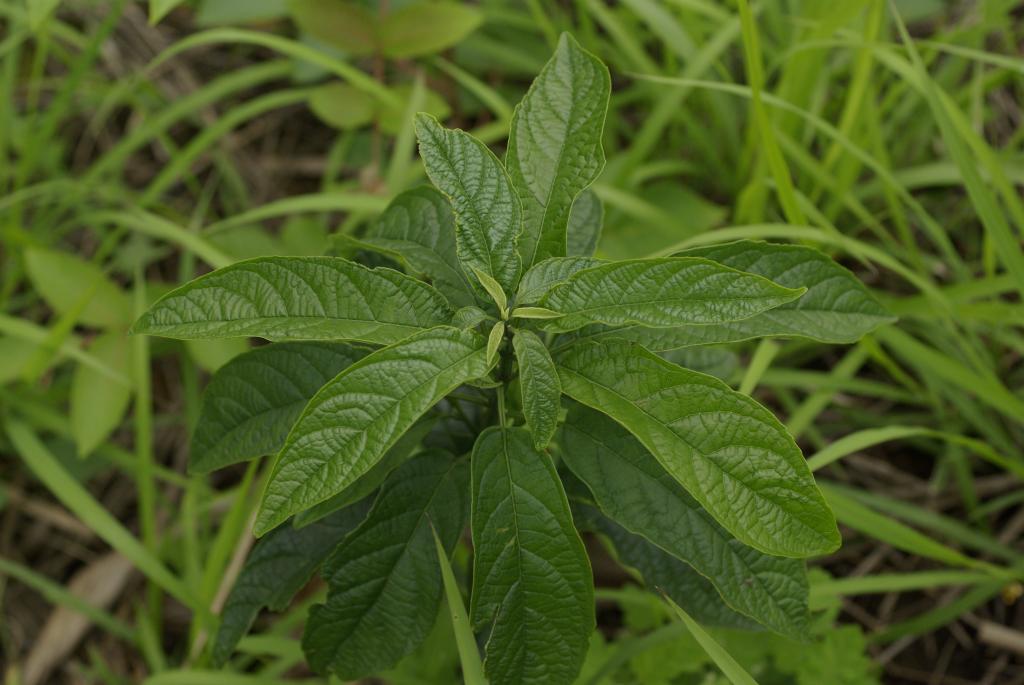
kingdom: Plantae
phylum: Tracheophyta
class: Magnoliopsida
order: Lamiales
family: Lamiaceae
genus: Clerodendrum
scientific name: Clerodendrum cyrtophyllum
